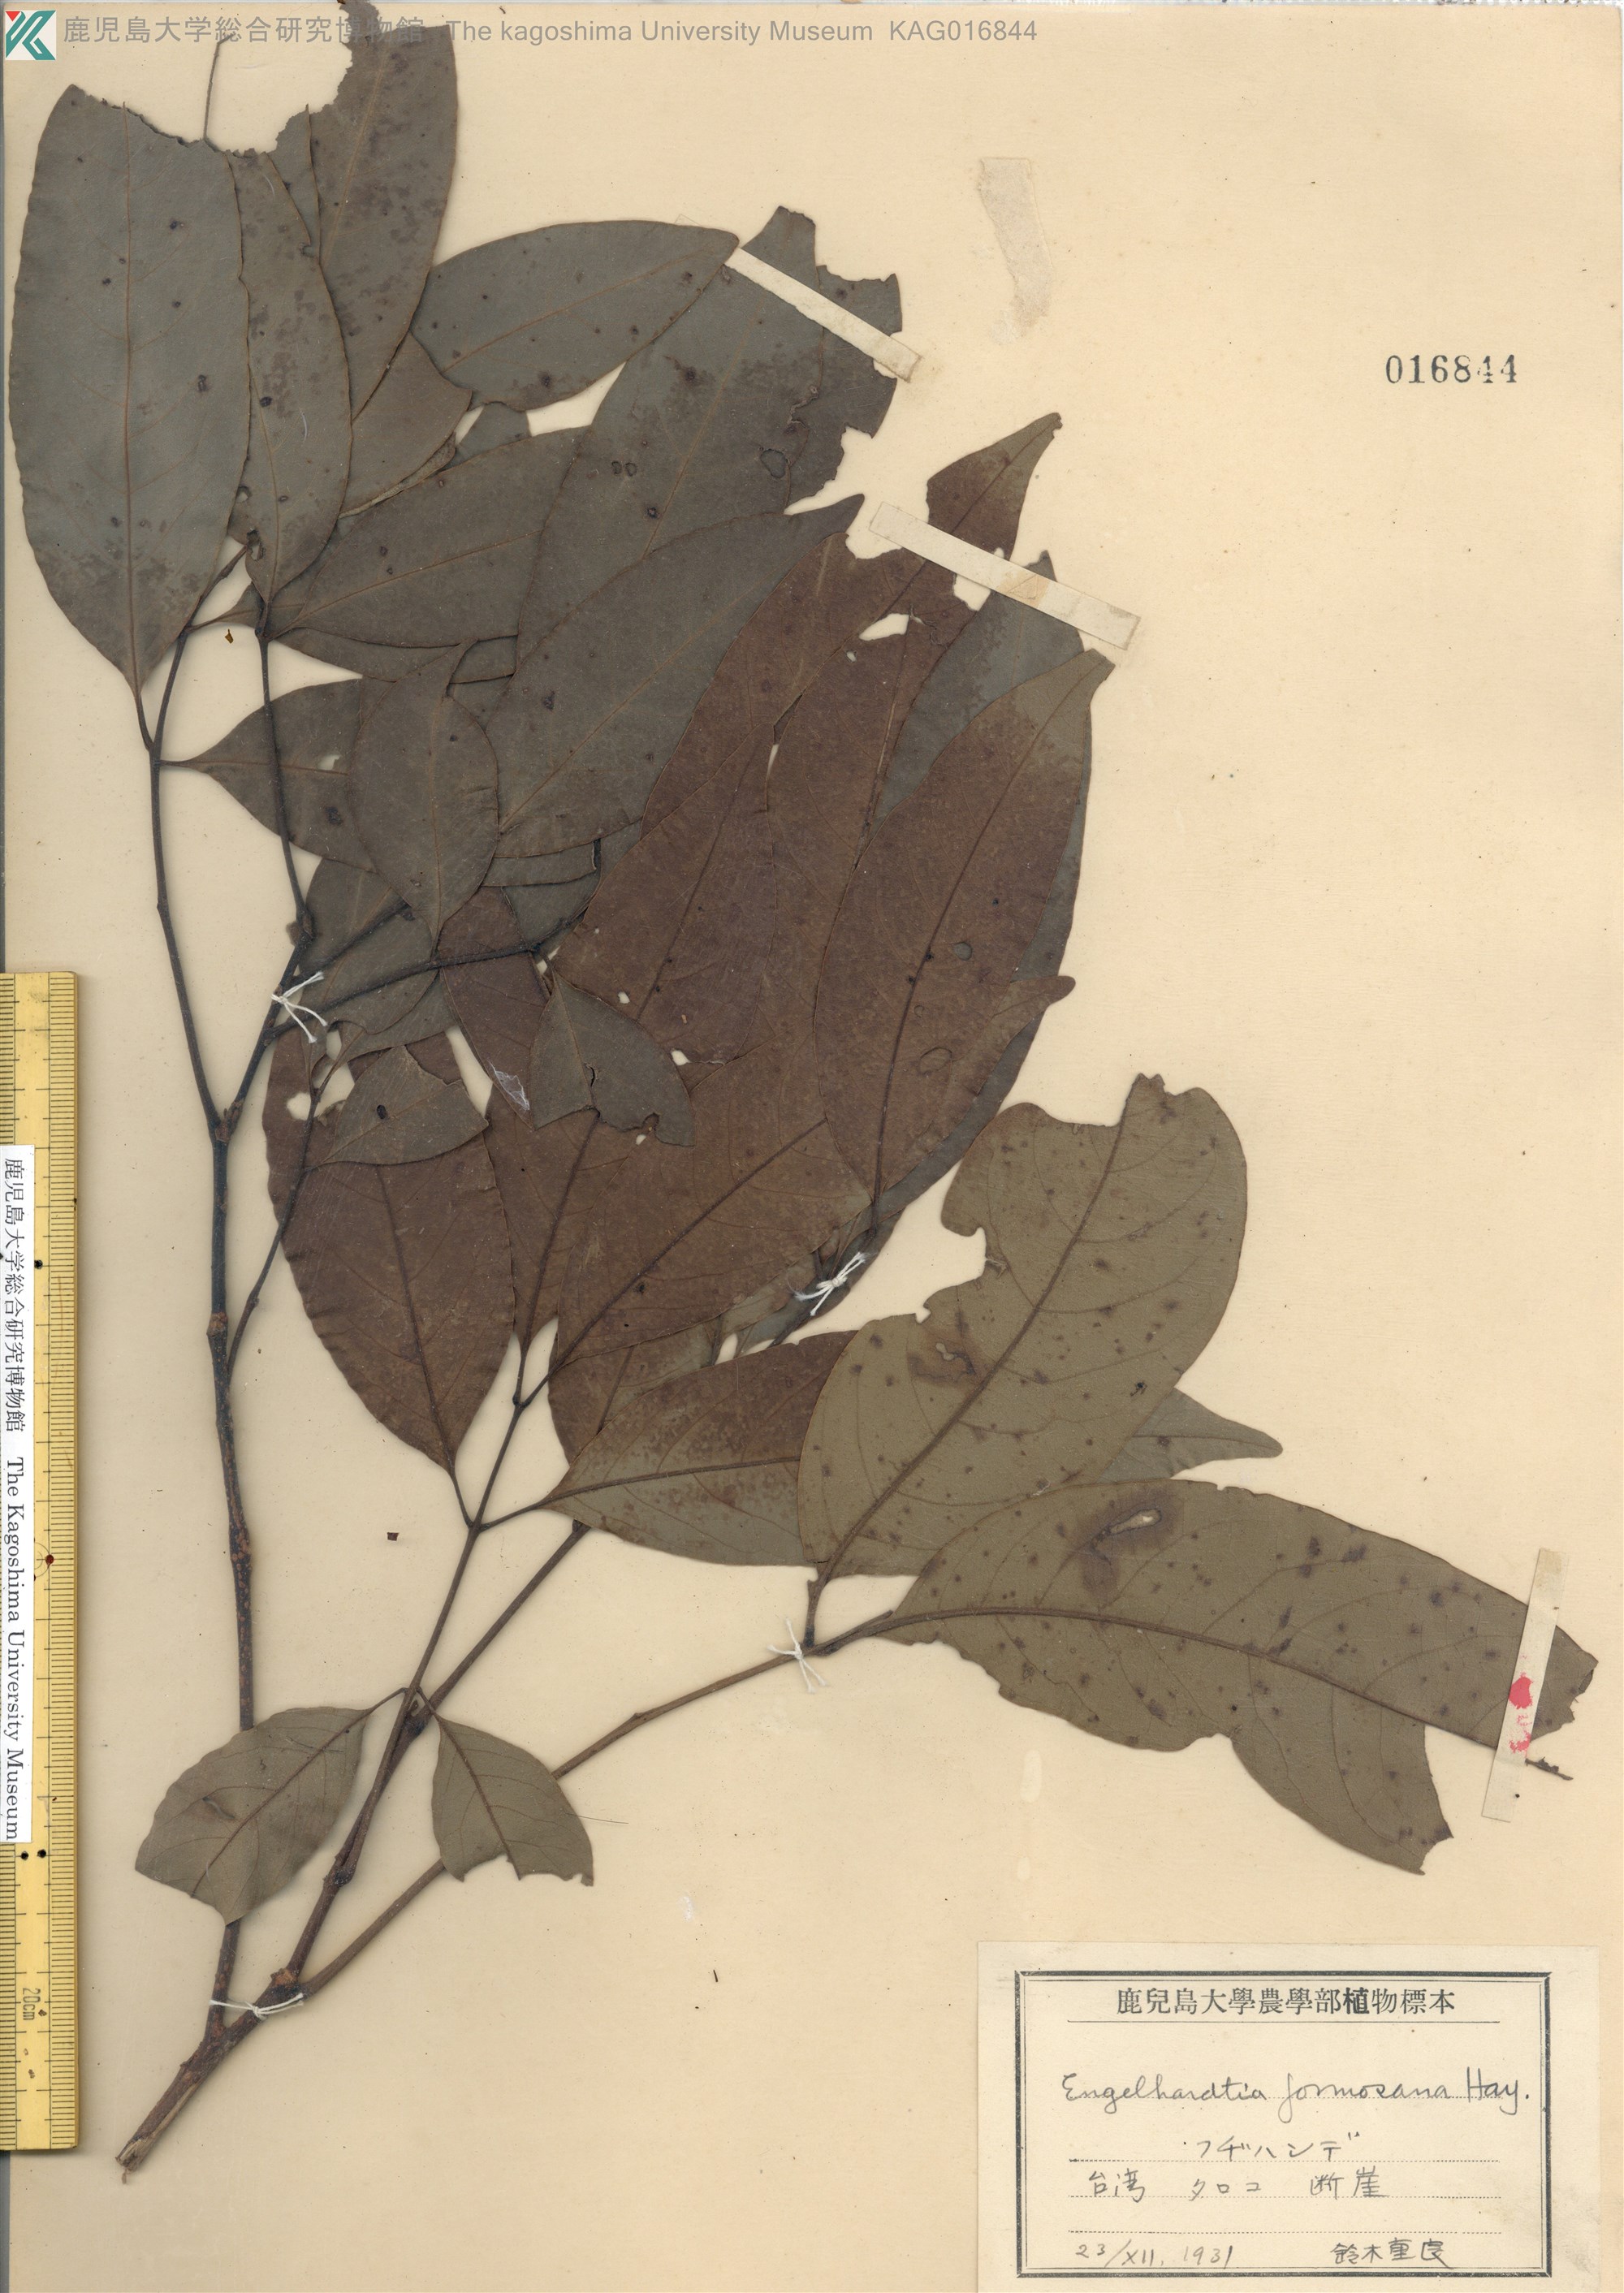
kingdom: Plantae
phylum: Tracheophyta
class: Magnoliopsida
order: Fagales
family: Juglandaceae
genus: Engelhardtia
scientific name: Engelhardtia roxburghiana
